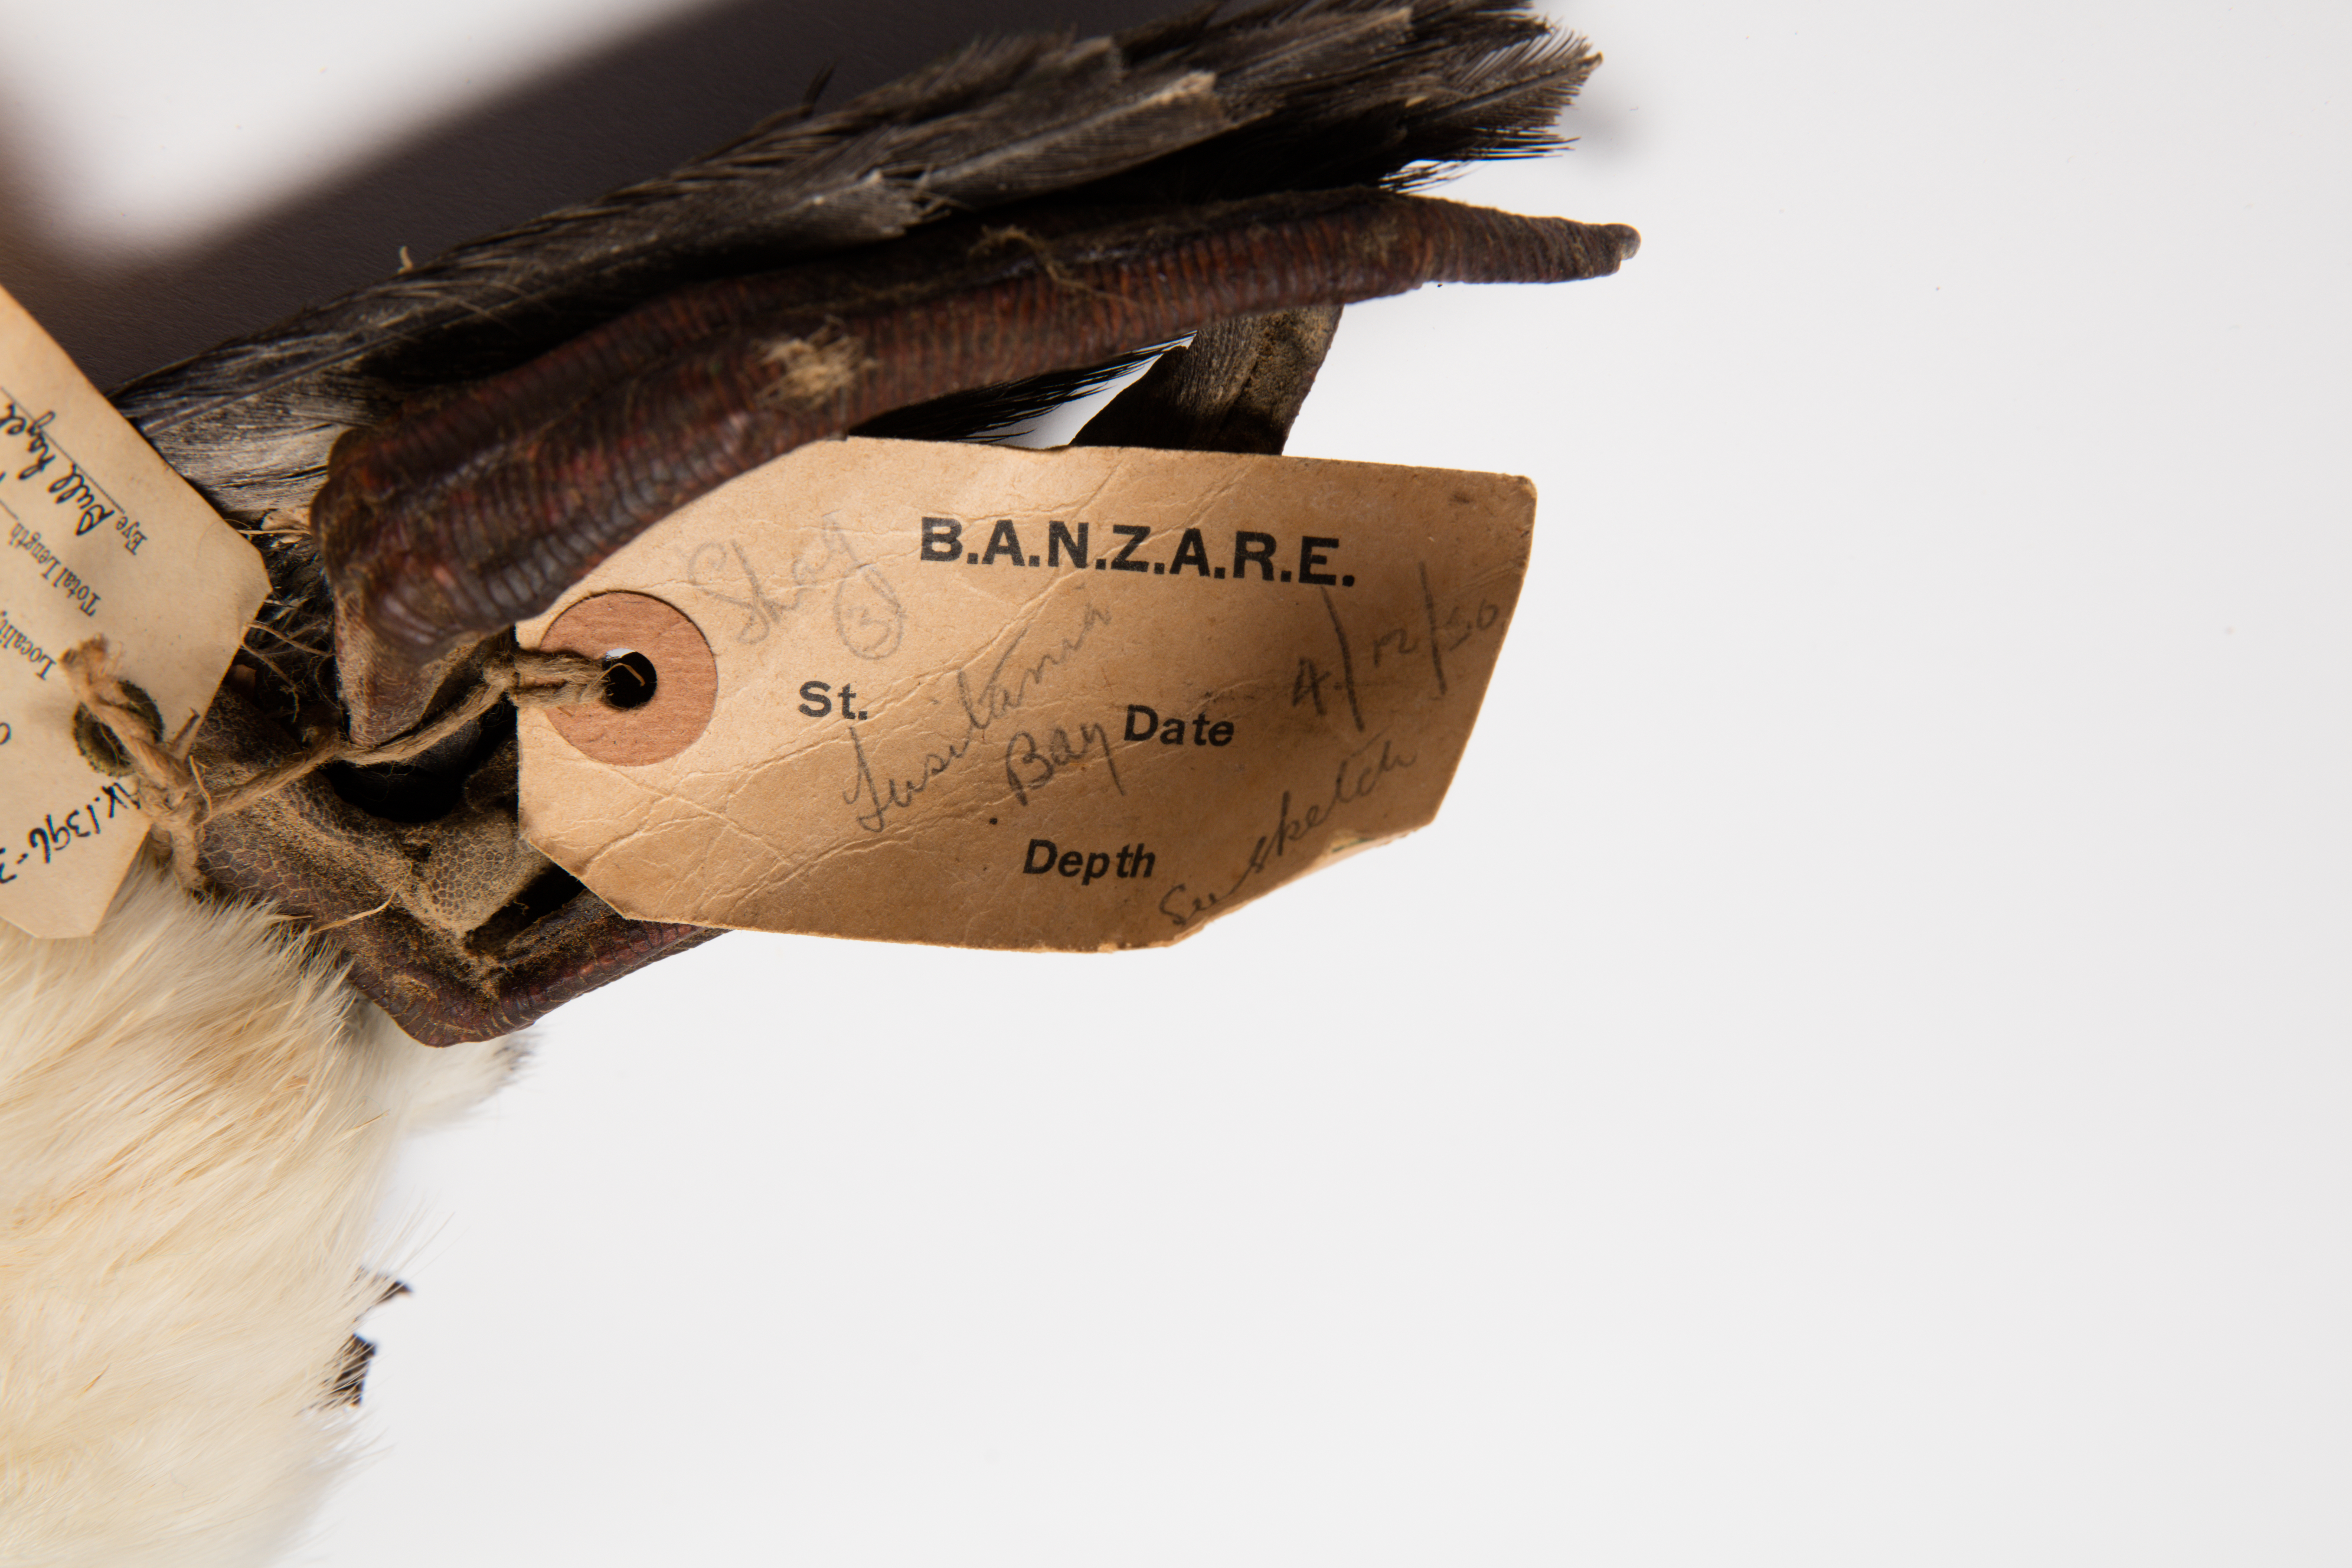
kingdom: Animalia
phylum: Chordata
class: Aves
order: Suliformes
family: Phalacrocoracidae
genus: Leucocarbo
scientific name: Leucocarbo albiventer
